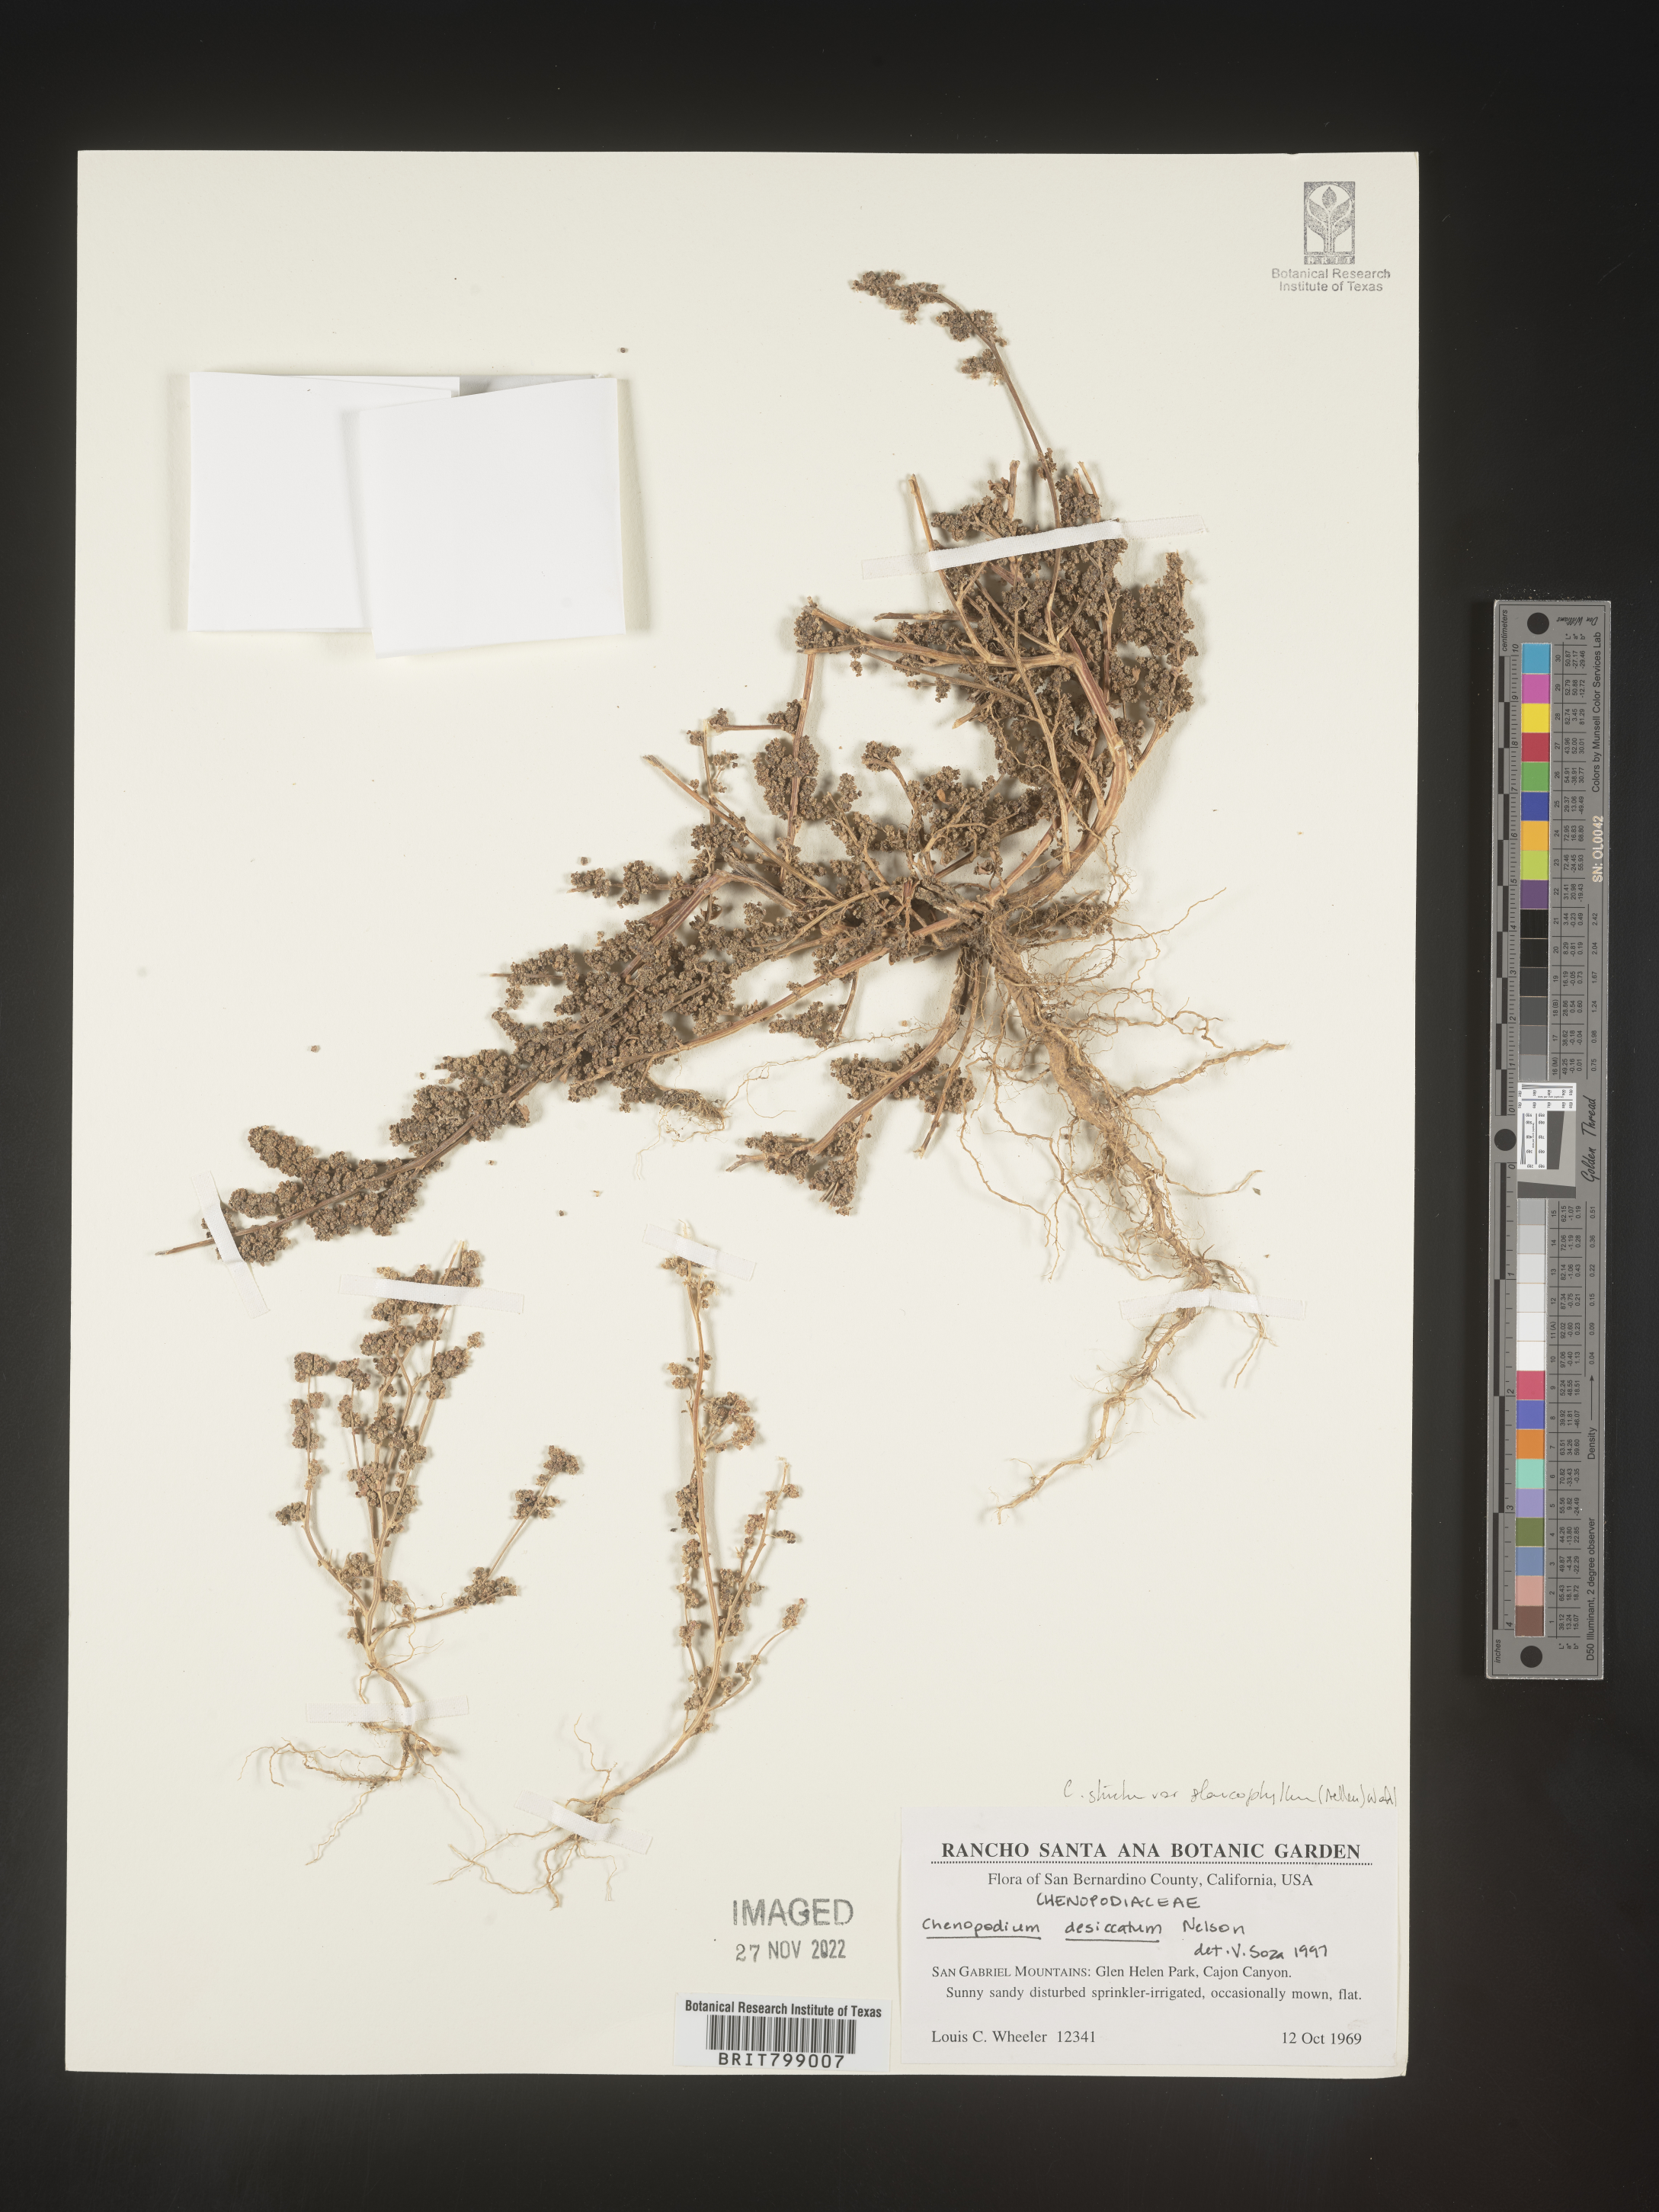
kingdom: Plantae
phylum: Tracheophyta
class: Magnoliopsida
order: Caryophyllales
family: Amaranthaceae
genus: Chenopodium
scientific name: Chenopodium album
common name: Fat-hen
